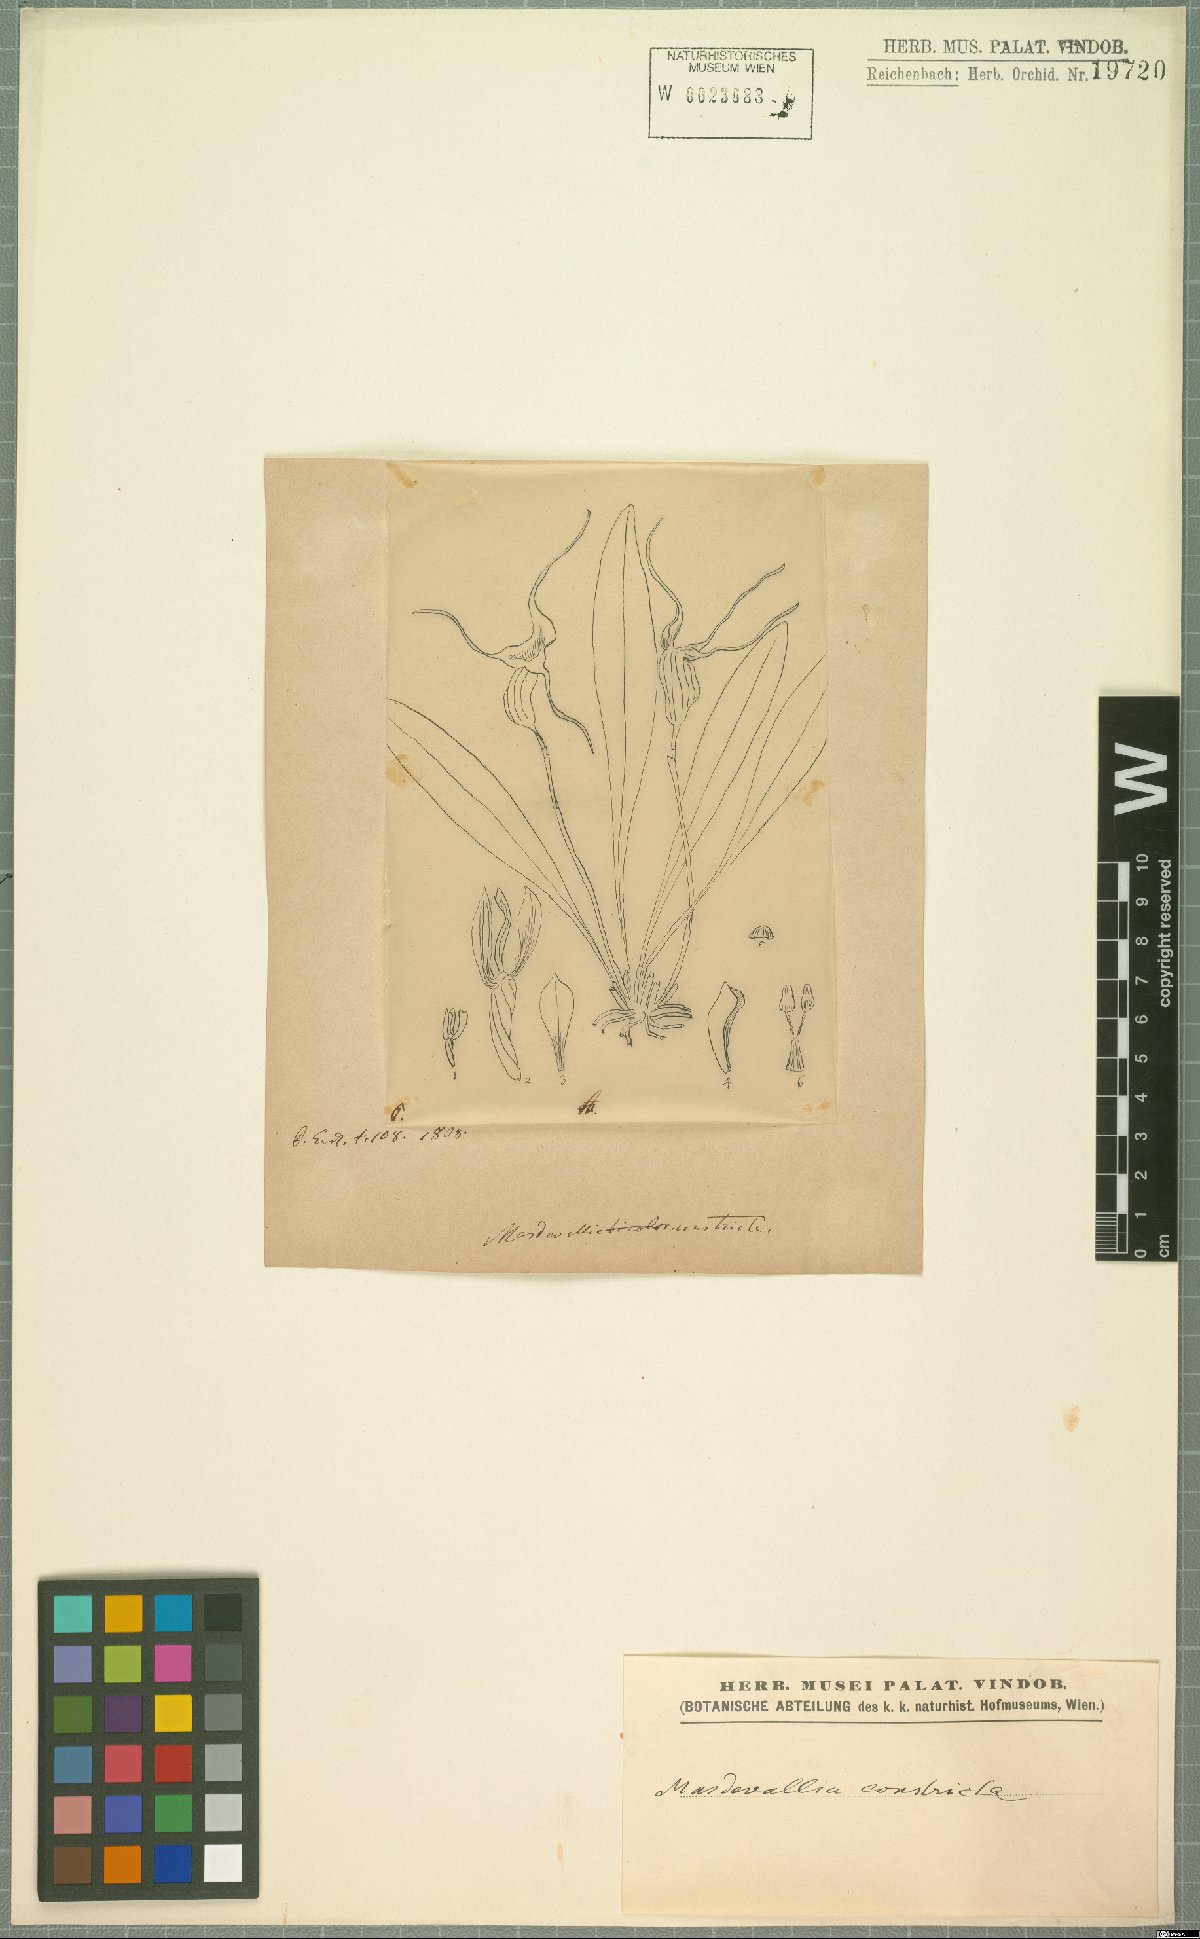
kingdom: Plantae
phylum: Tracheophyta
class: Liliopsida
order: Asparagales
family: Orchidaceae
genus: Masdevallia
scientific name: Masdevallia constricta
